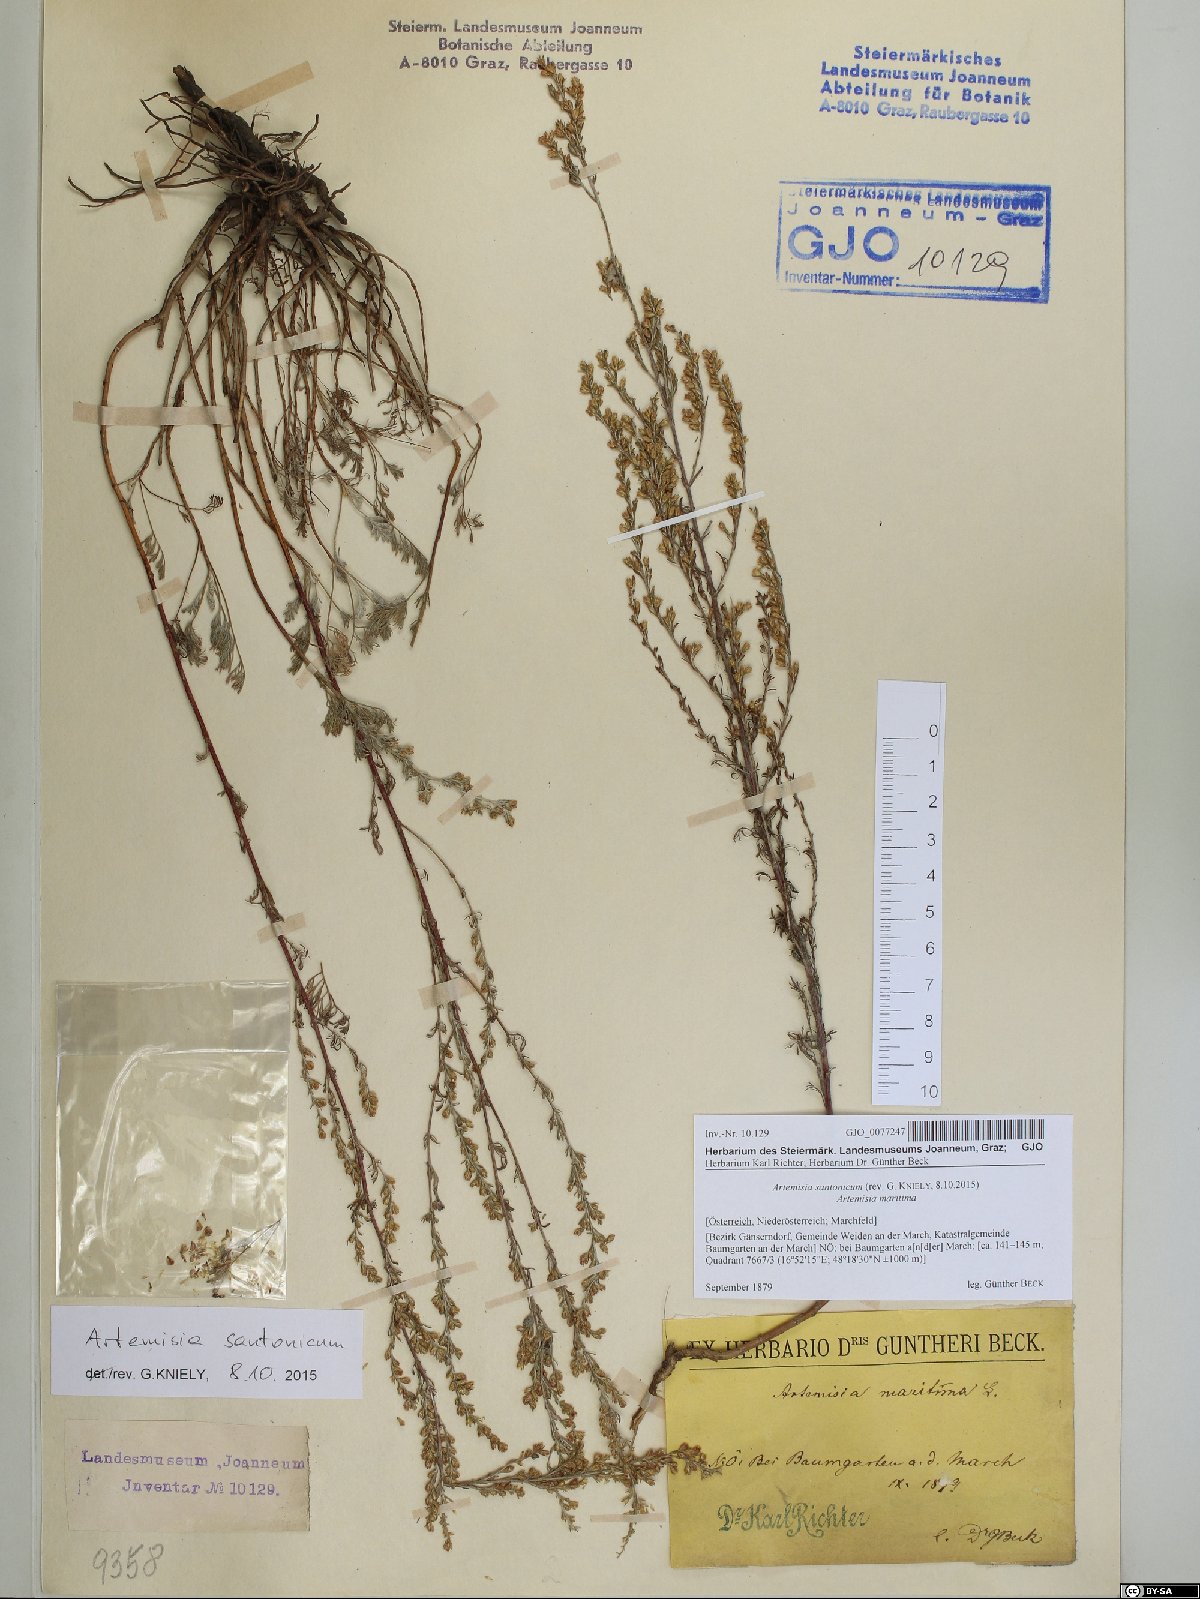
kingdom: Plantae
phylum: Tracheophyta
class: Magnoliopsida
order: Asterales
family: Asteraceae
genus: Artemisia
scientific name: Artemisia santonicum
